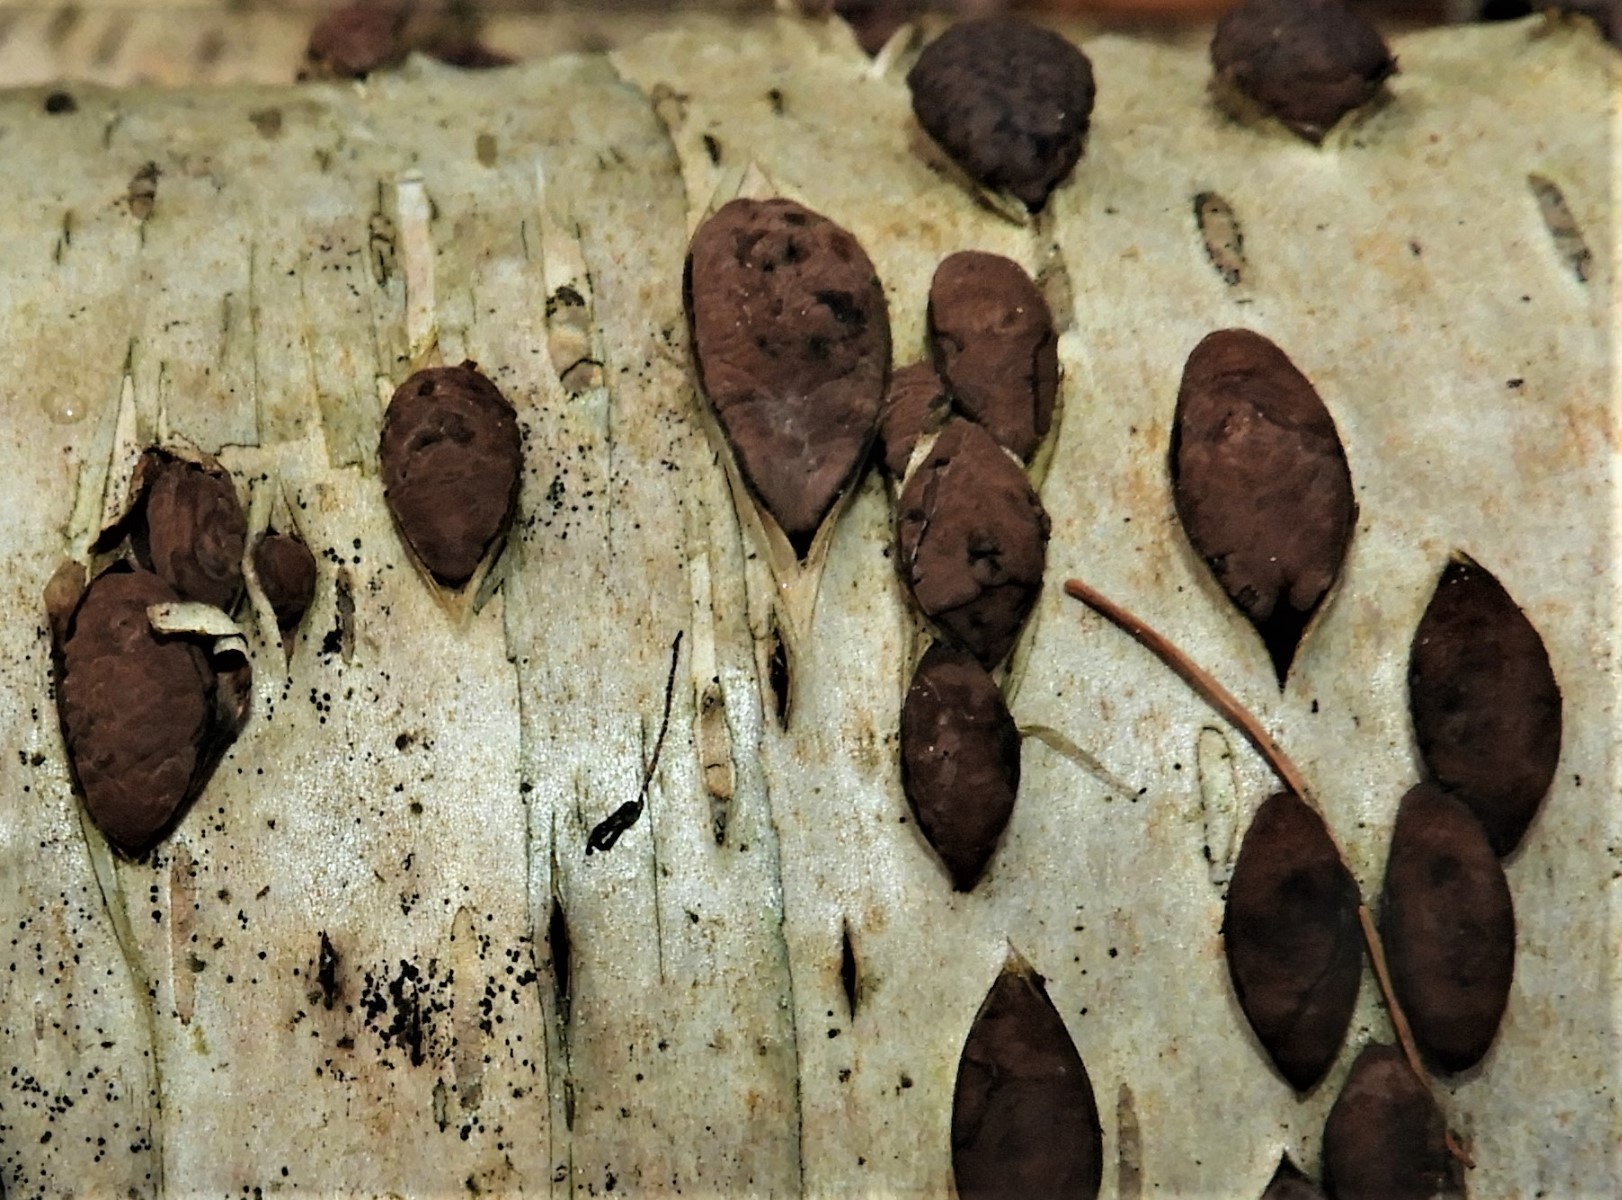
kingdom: Fungi
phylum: Ascomycota
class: Sordariomycetes
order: Xylariales
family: Hypoxylaceae
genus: Jackrogersella
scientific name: Jackrogersella multiformis
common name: foranderlig kulbær
